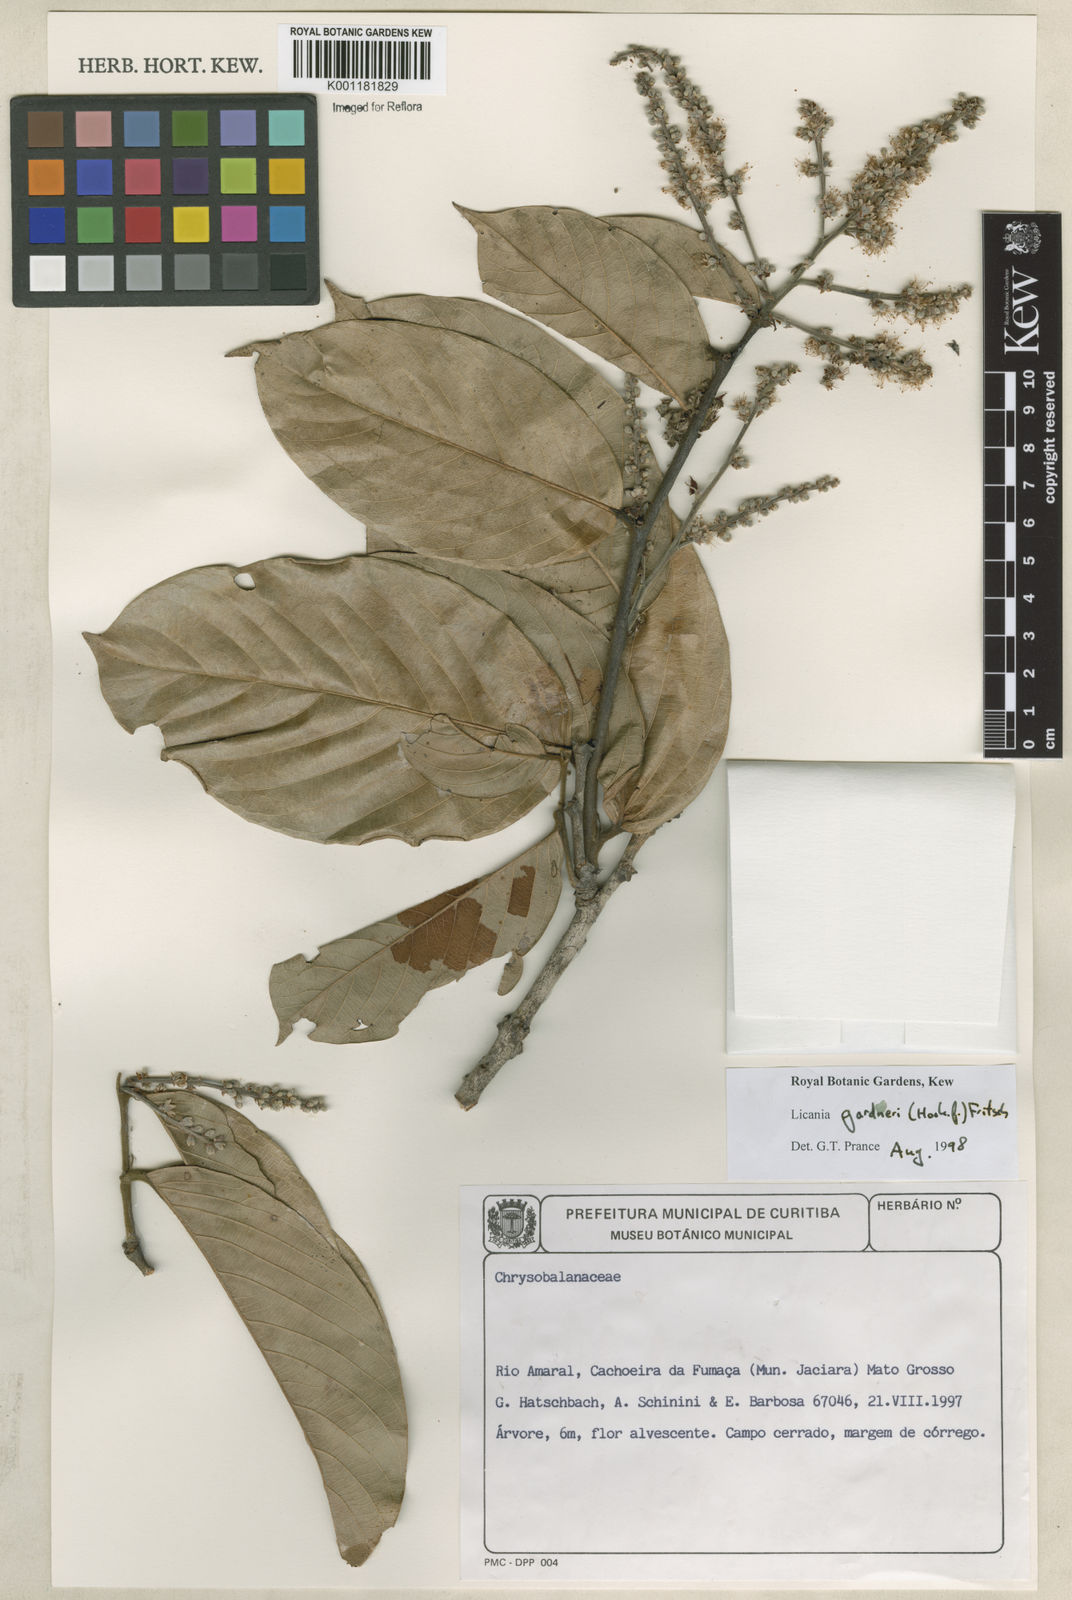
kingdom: Plantae
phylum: Tracheophyta
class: Magnoliopsida
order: Malpighiales
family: Chrysobalanaceae
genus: Leptobalanus
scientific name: Leptobalanus gardneri
